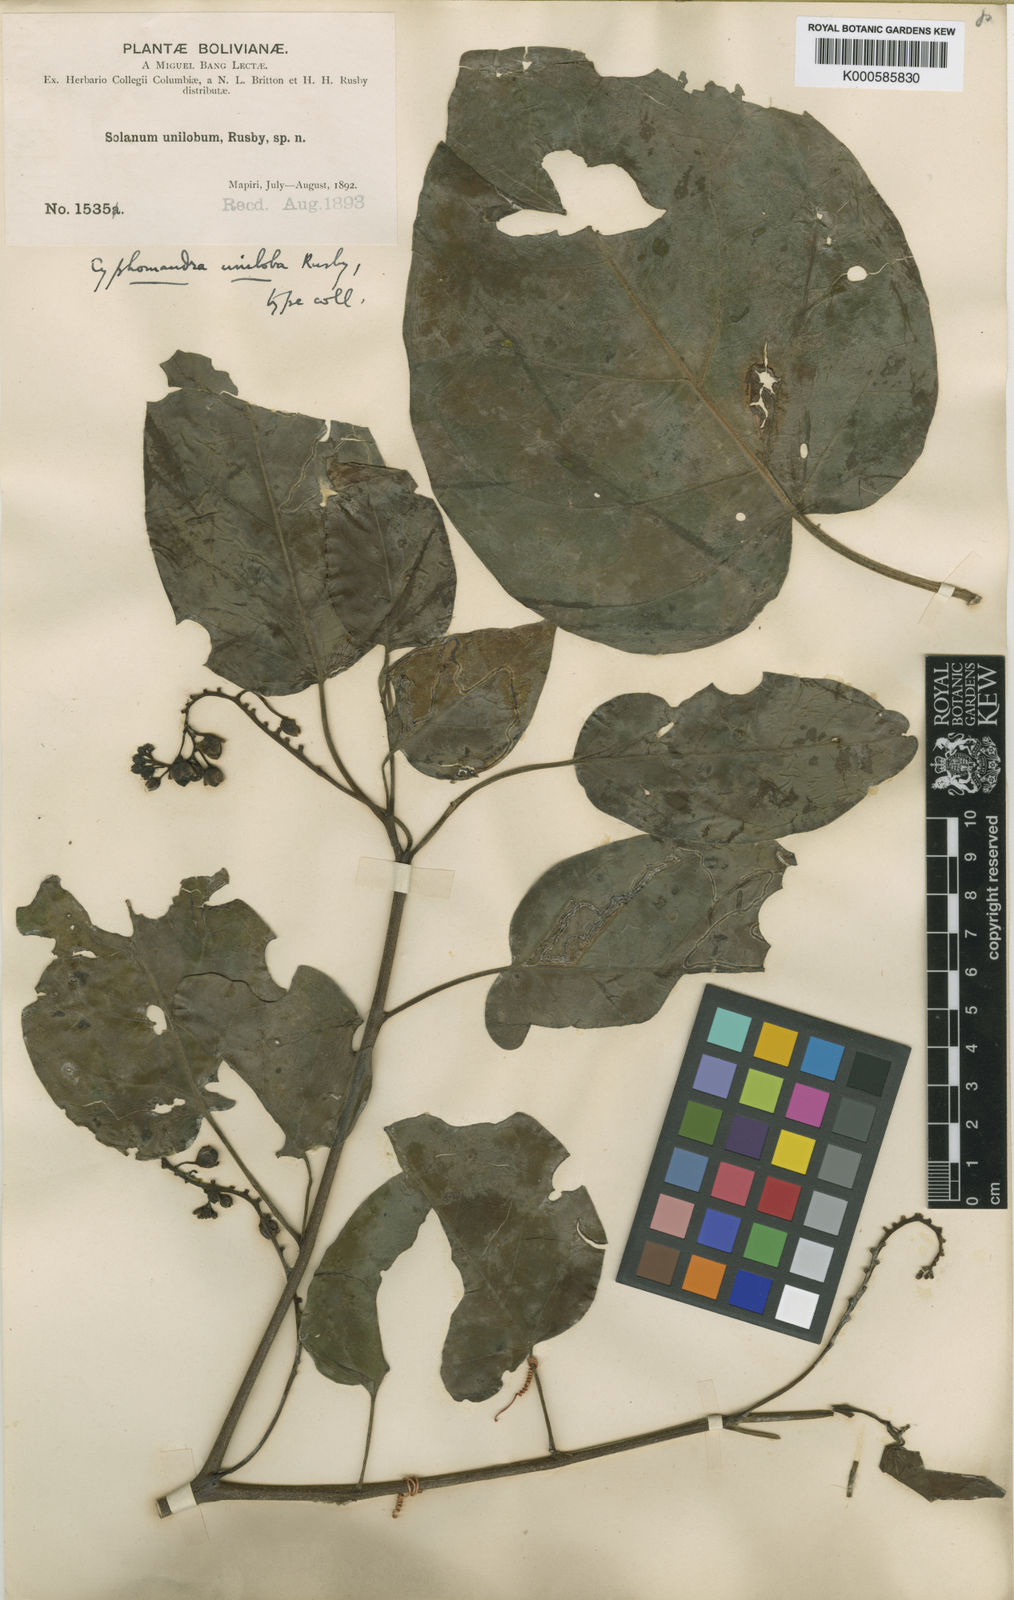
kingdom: Plantae
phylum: Tracheophyta
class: Magnoliopsida
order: Solanales
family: Solanaceae
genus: Solanum
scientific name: Solanum unilobum
